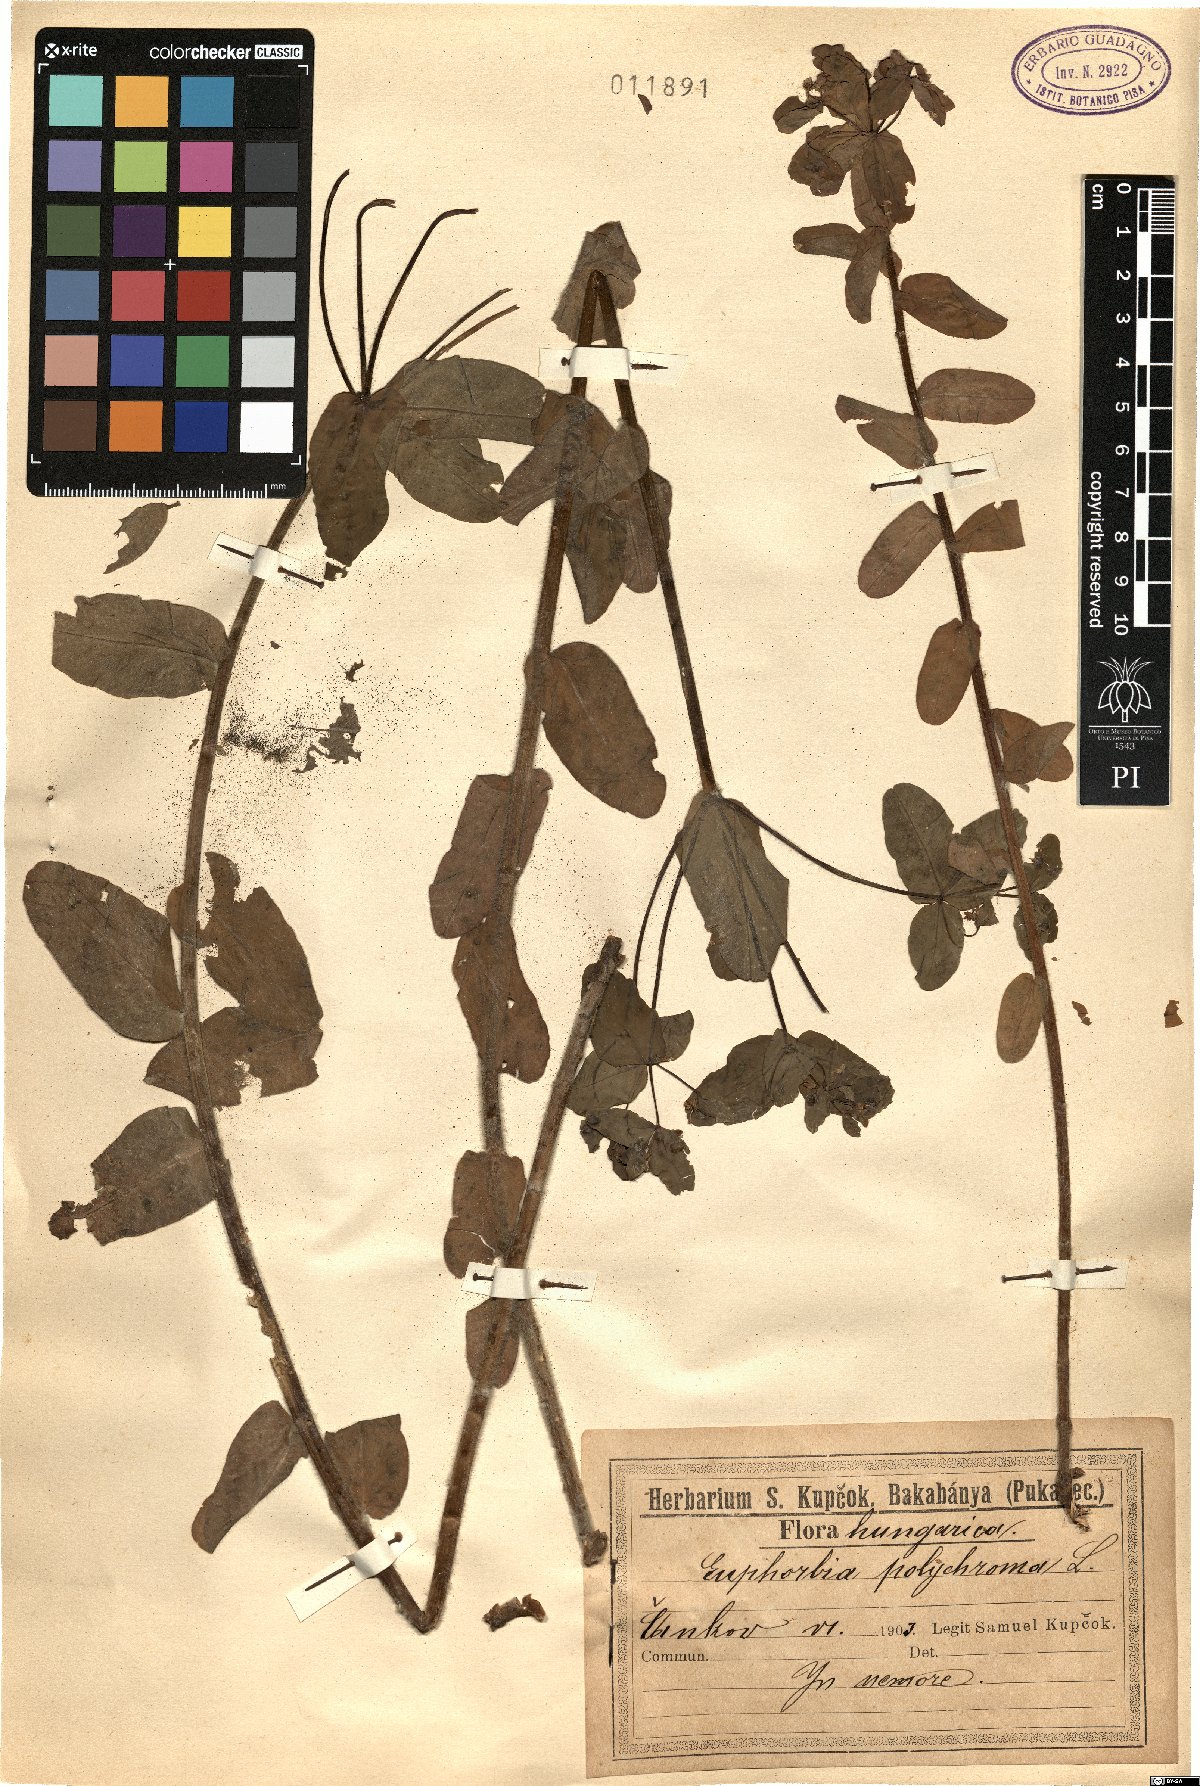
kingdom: Plantae
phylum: Tracheophyta
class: Magnoliopsida
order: Malpighiales
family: Euphorbiaceae
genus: Euphorbia
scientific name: Euphorbia epithymoides
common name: Cushion spurge
